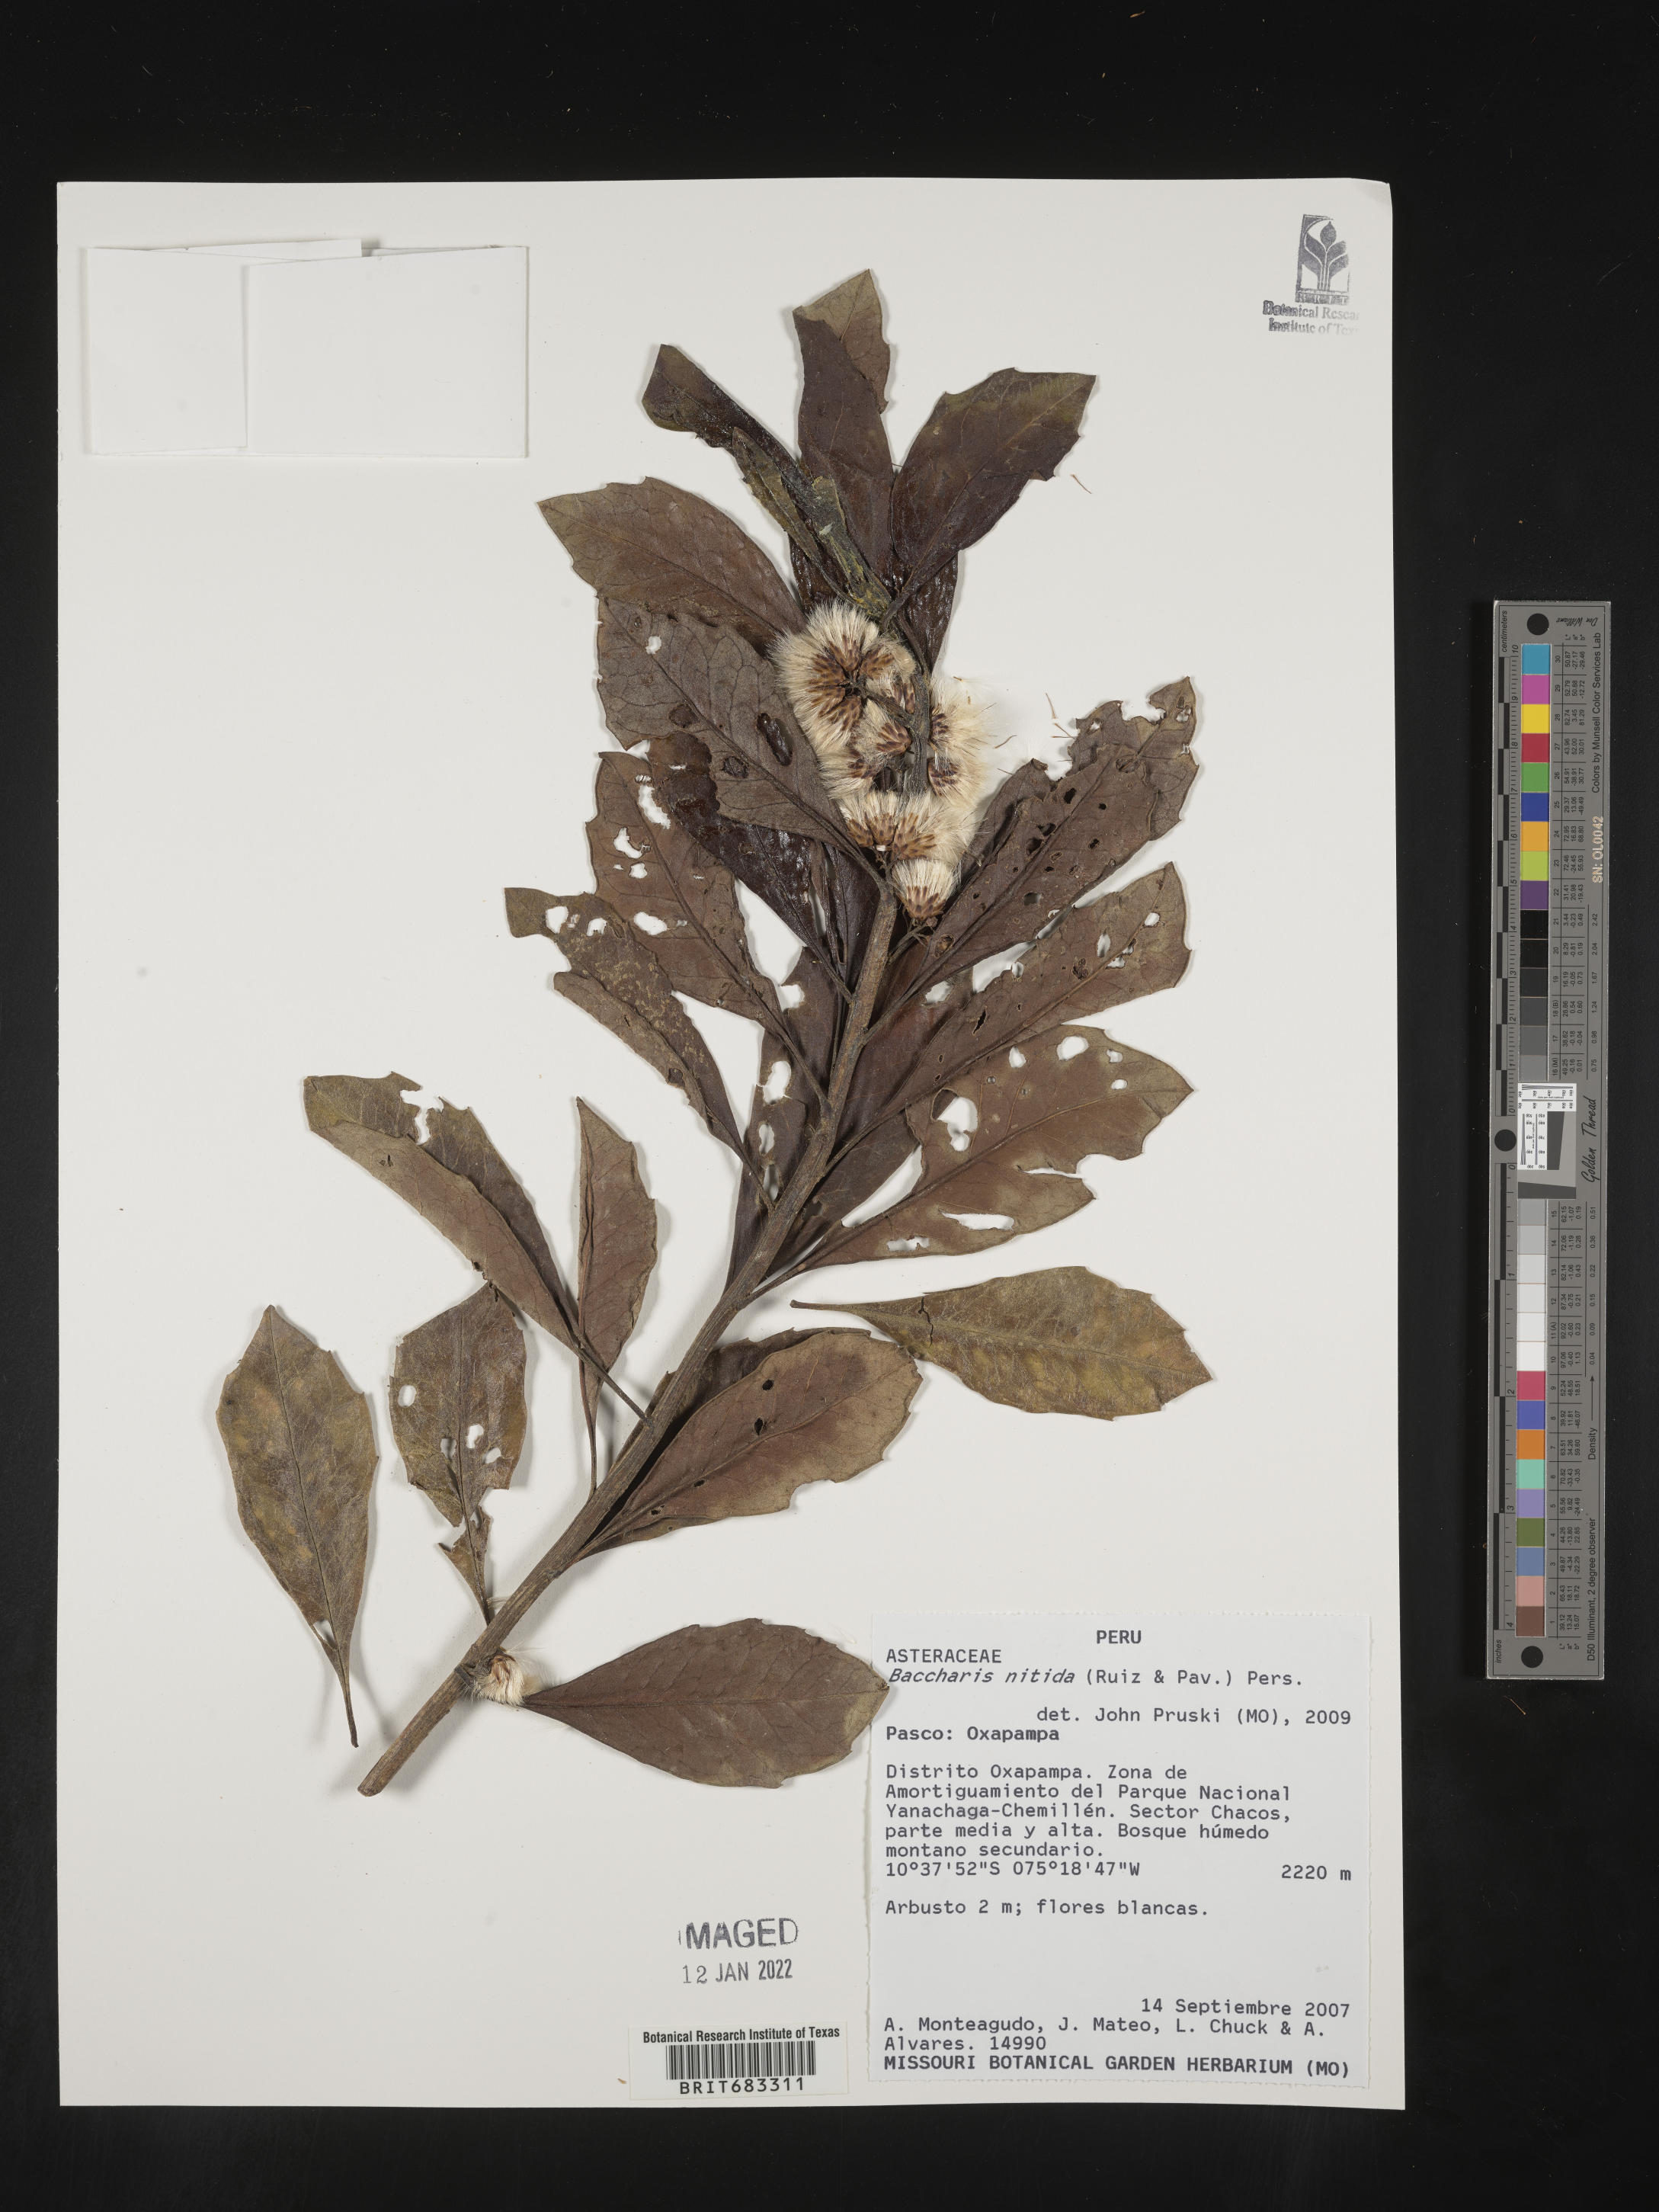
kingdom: Plantae
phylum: Tracheophyta
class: Magnoliopsida
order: Asterales
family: Asteraceae
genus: Baccharis
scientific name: Baccharis
